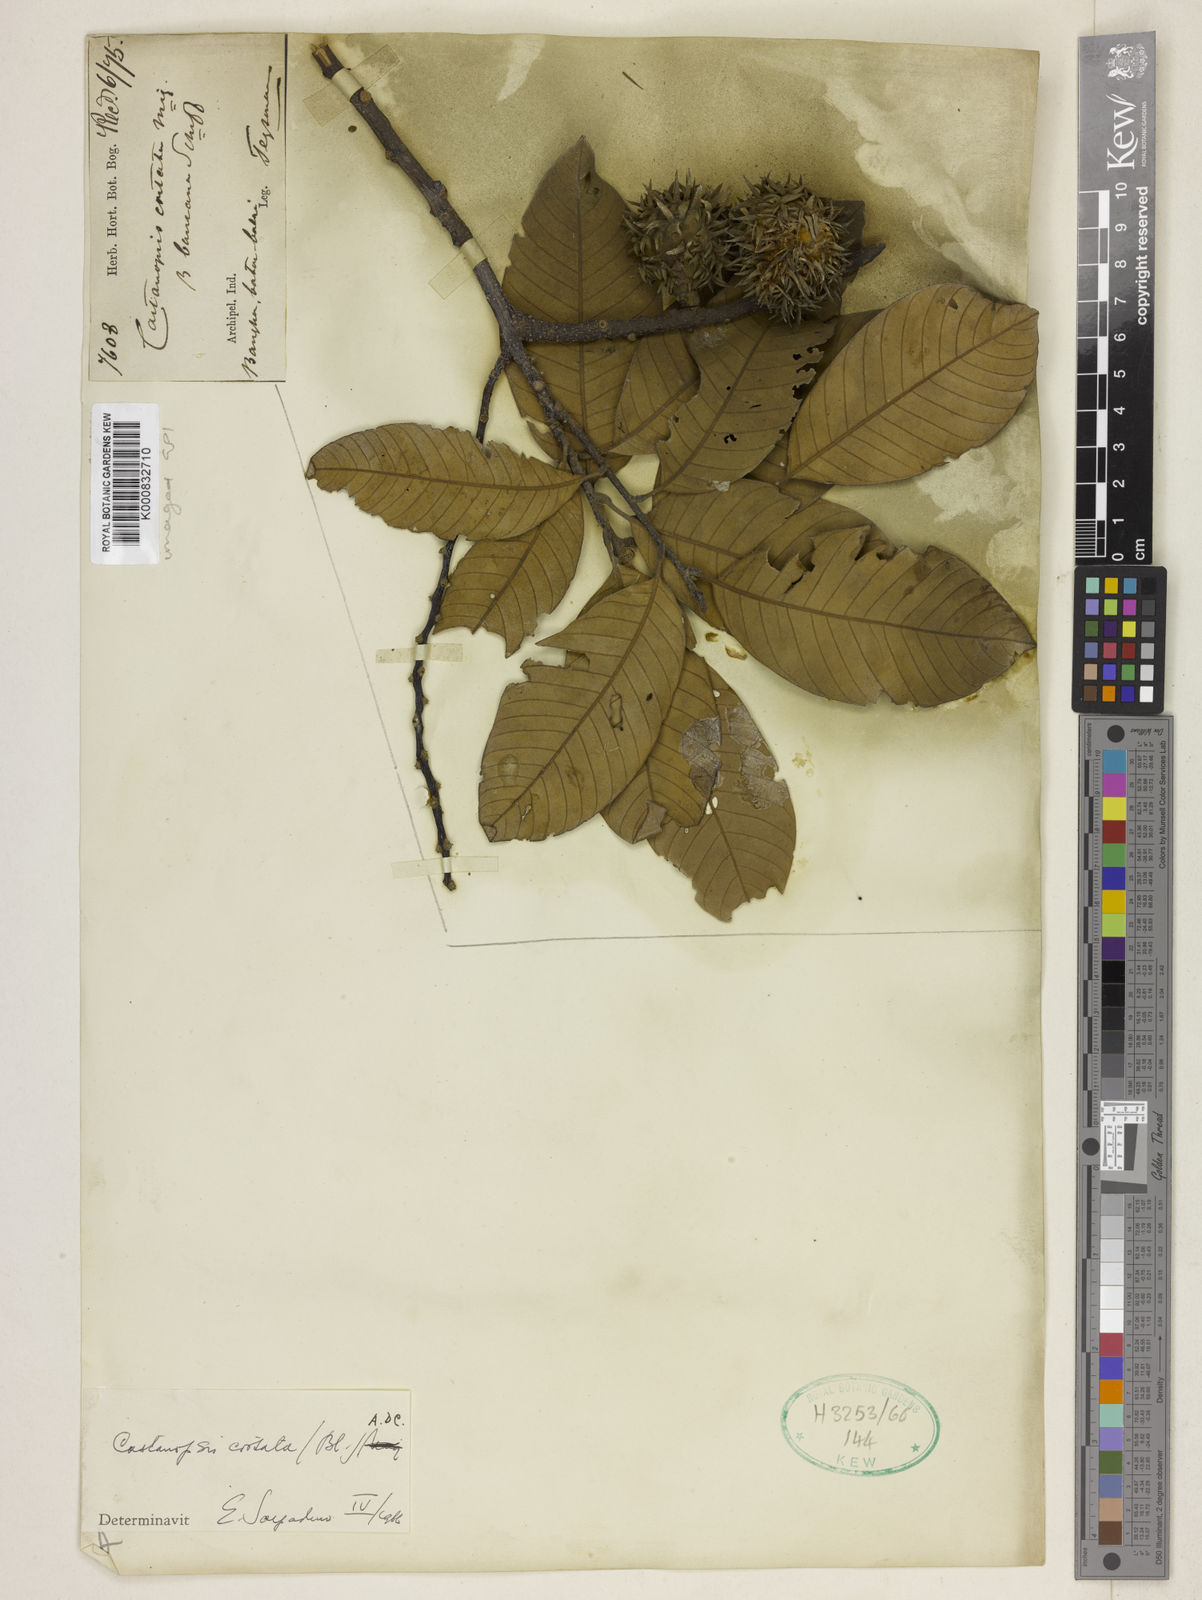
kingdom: Plantae
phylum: Tracheophyta
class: Magnoliopsida
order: Fagales
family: Fagaceae
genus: Castanopsis
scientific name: Castanopsis costata
